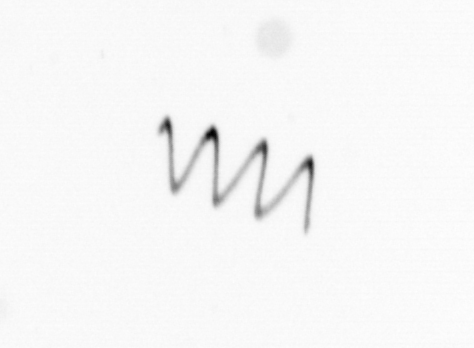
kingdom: Chromista
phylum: Ochrophyta
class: Bacillariophyceae
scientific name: Bacillariophyceae
